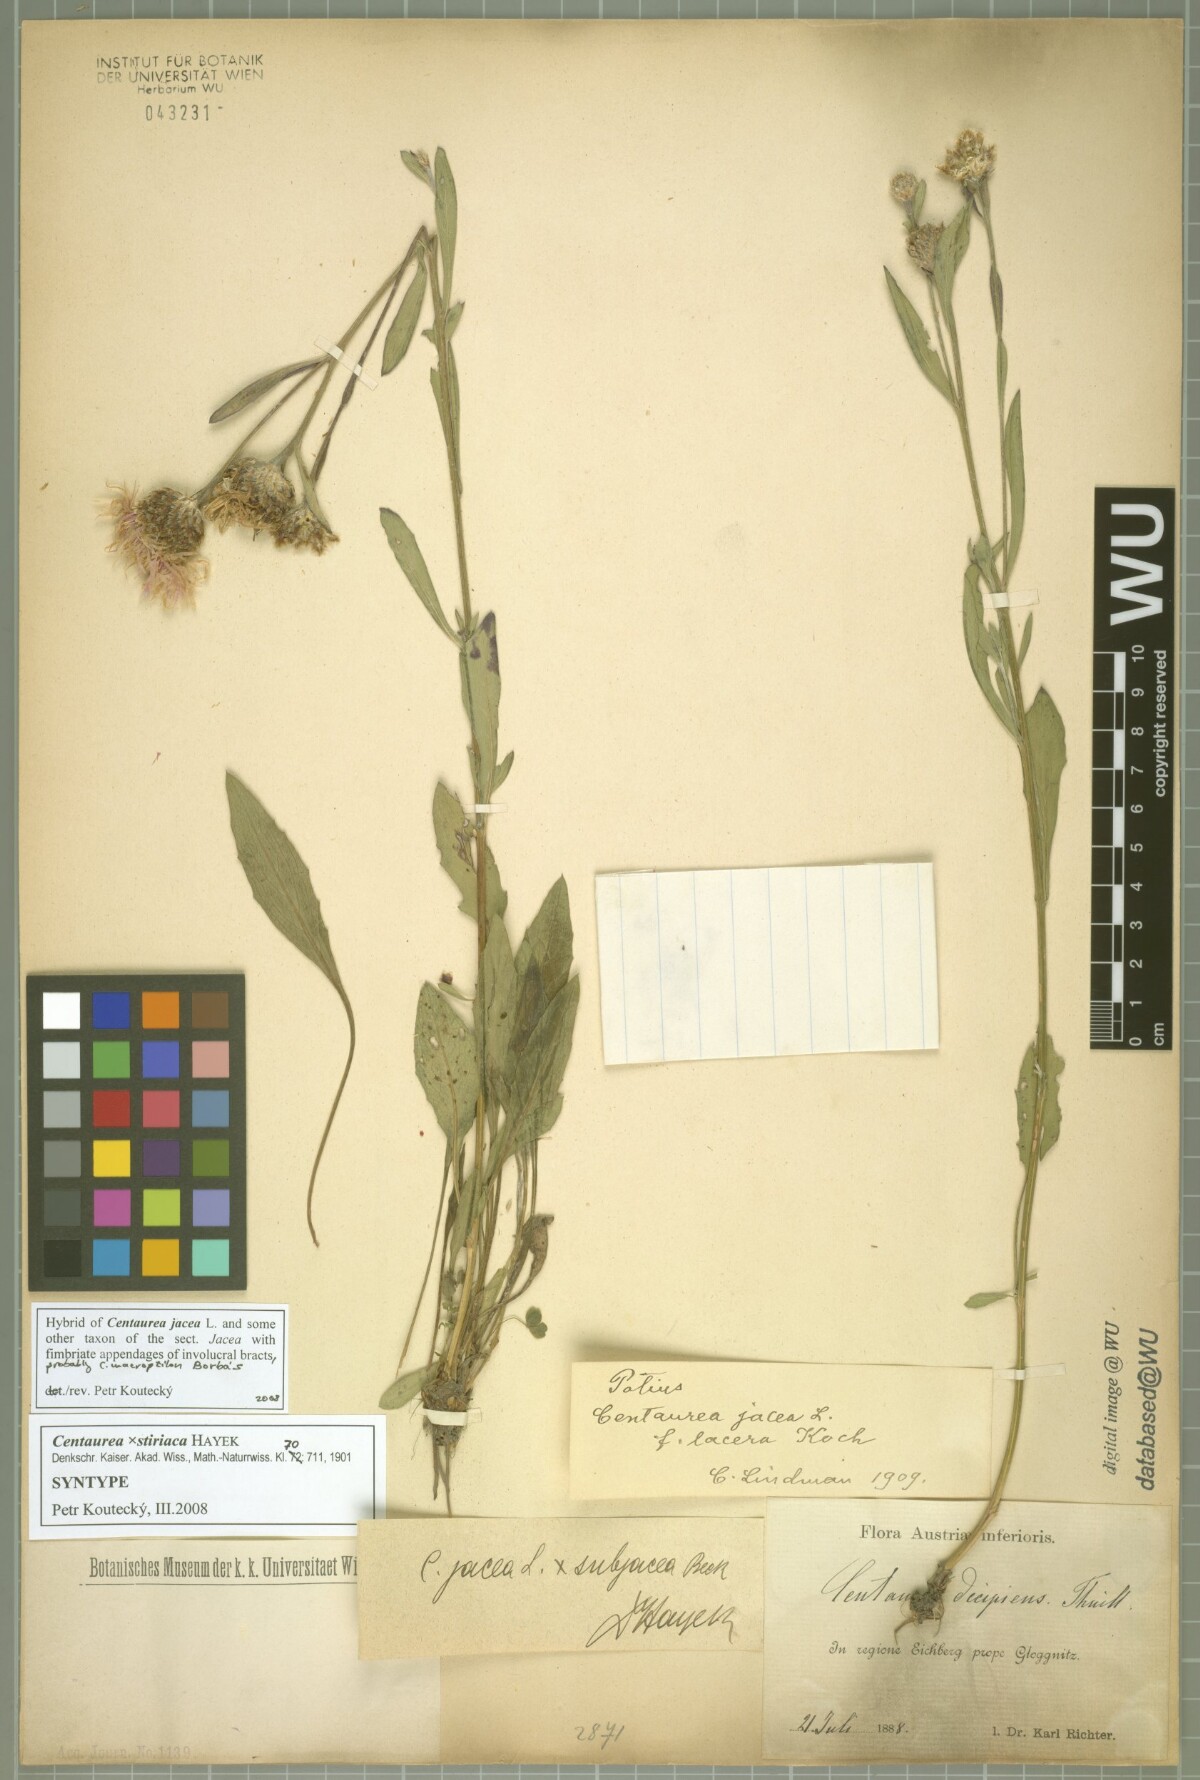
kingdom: Plantae
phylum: Tracheophyta
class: Magnoliopsida
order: Asterales
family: Asteraceae
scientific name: Asteraceae
